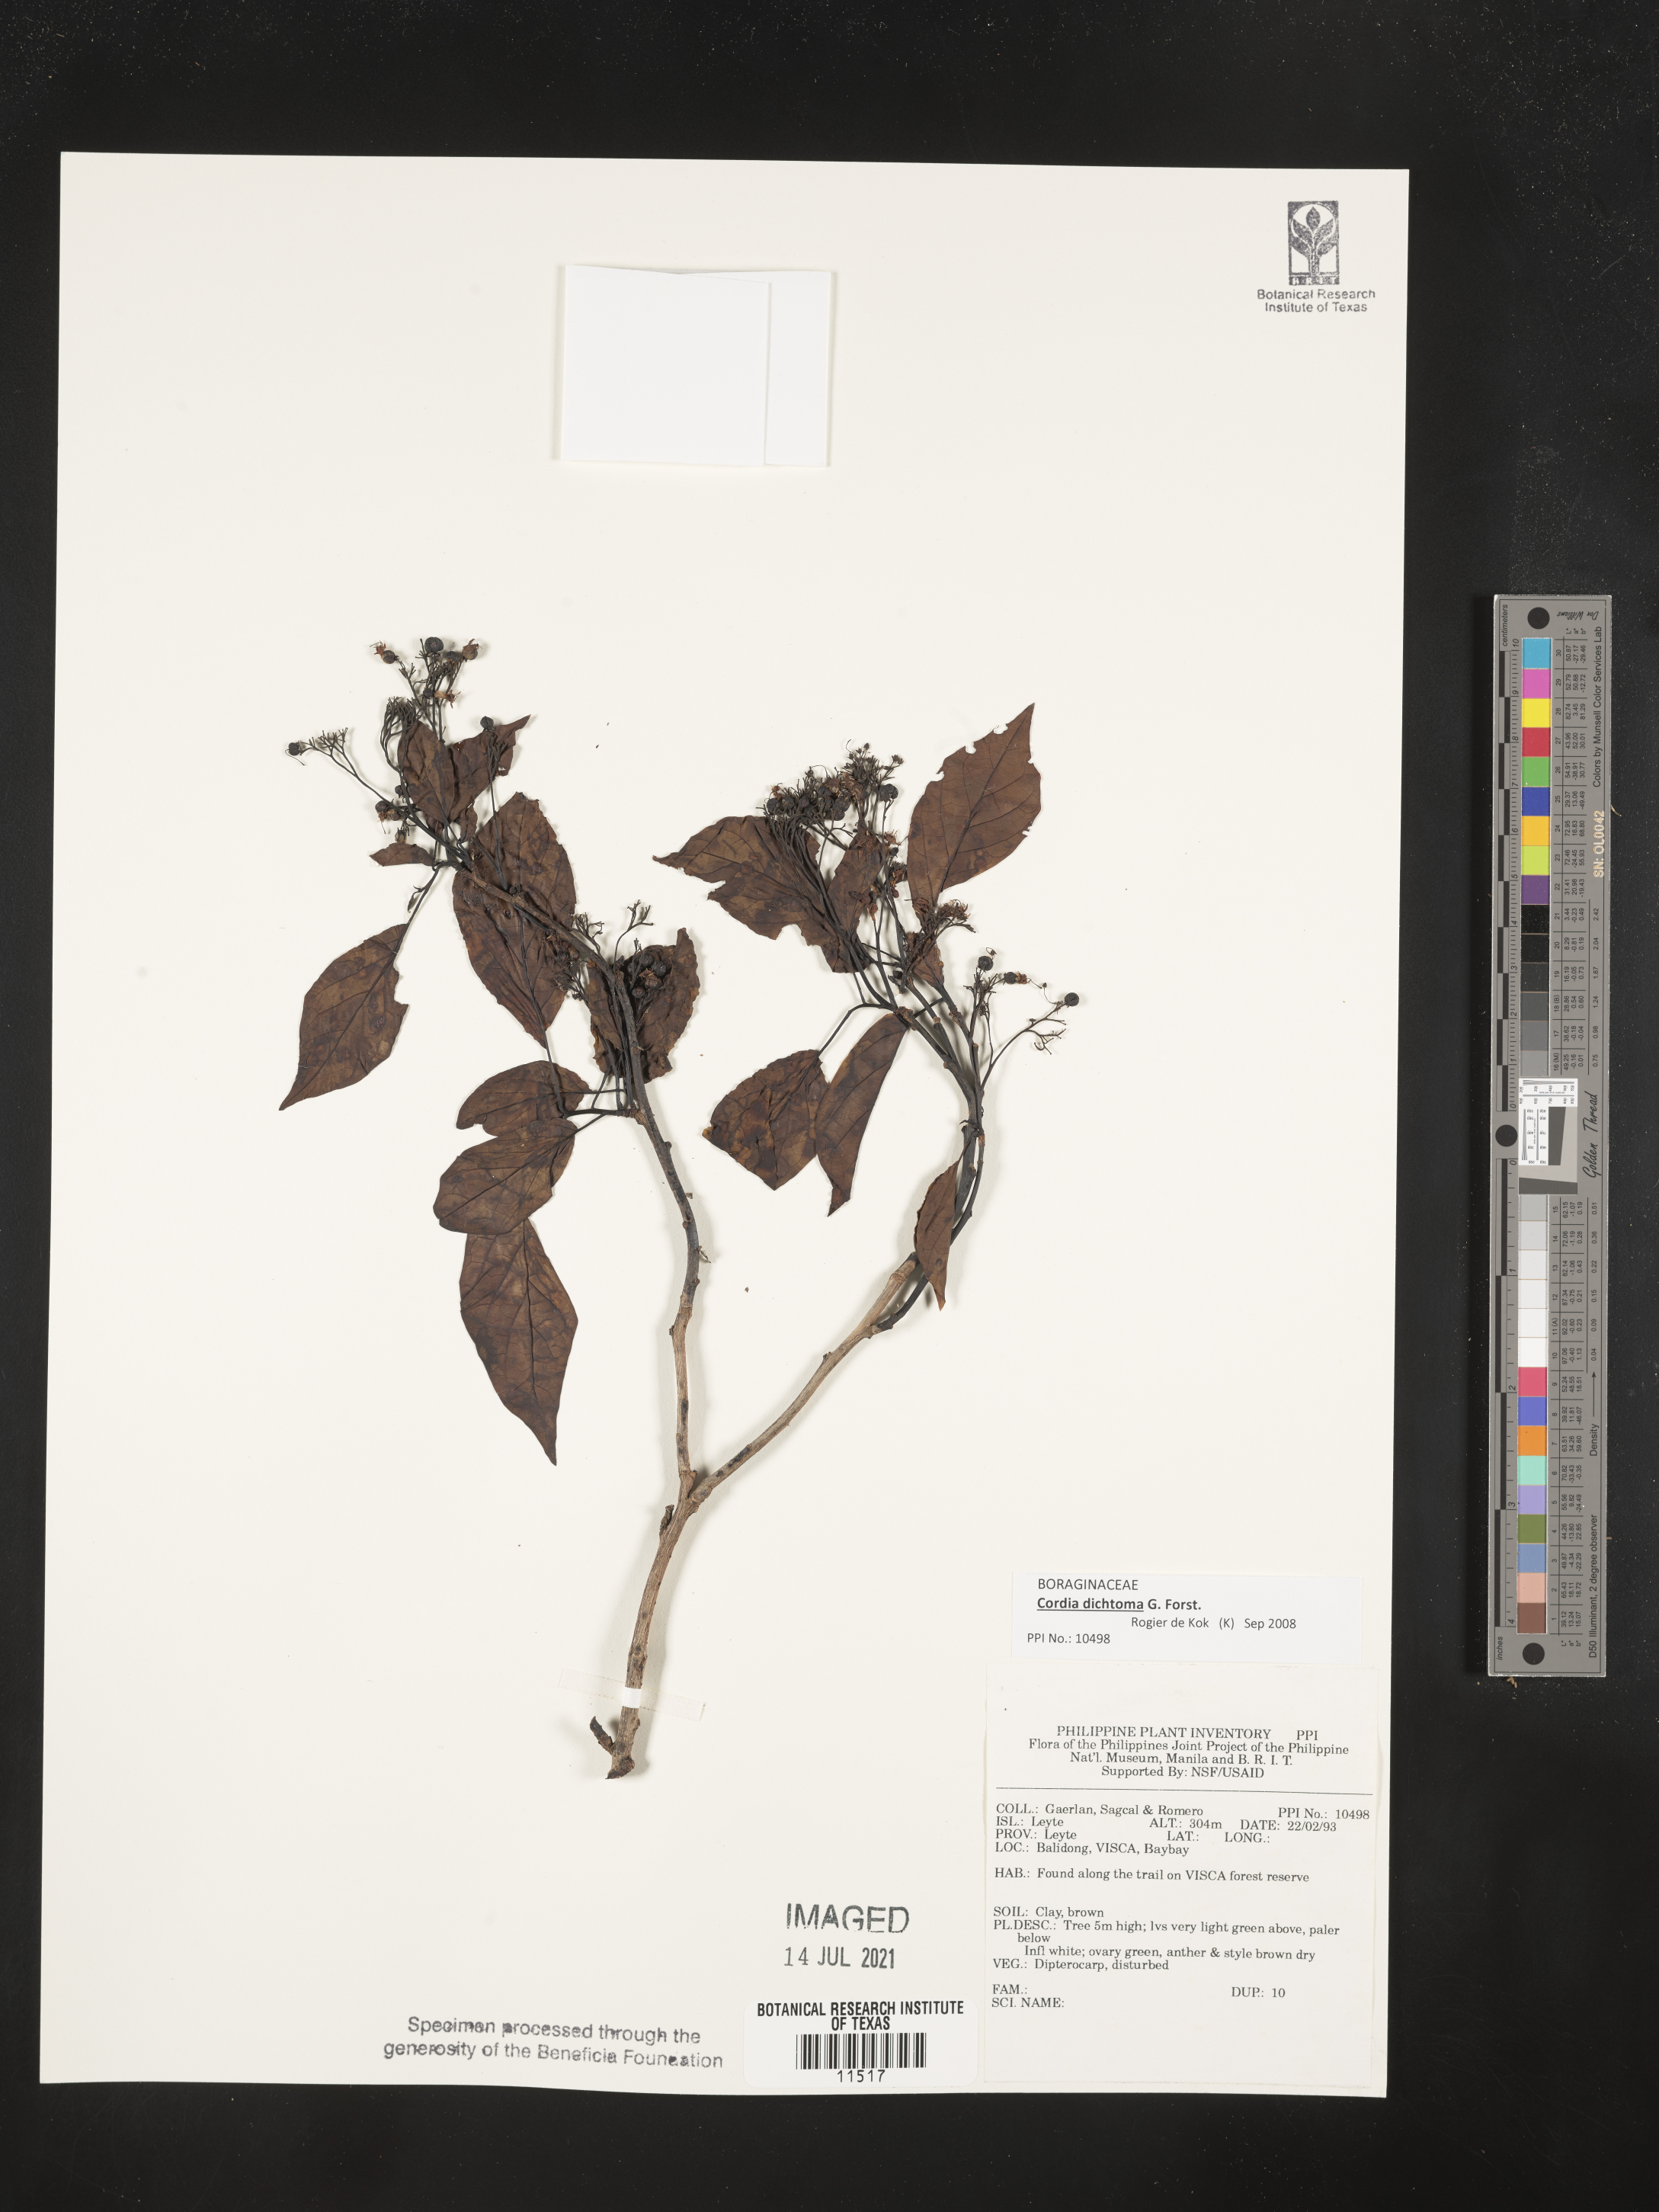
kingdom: Plantae
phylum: Tracheophyta
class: Magnoliopsida
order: Boraginales
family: Cordiaceae
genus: Cordia
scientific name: Cordia dichotoma
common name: Fragrant manjack
